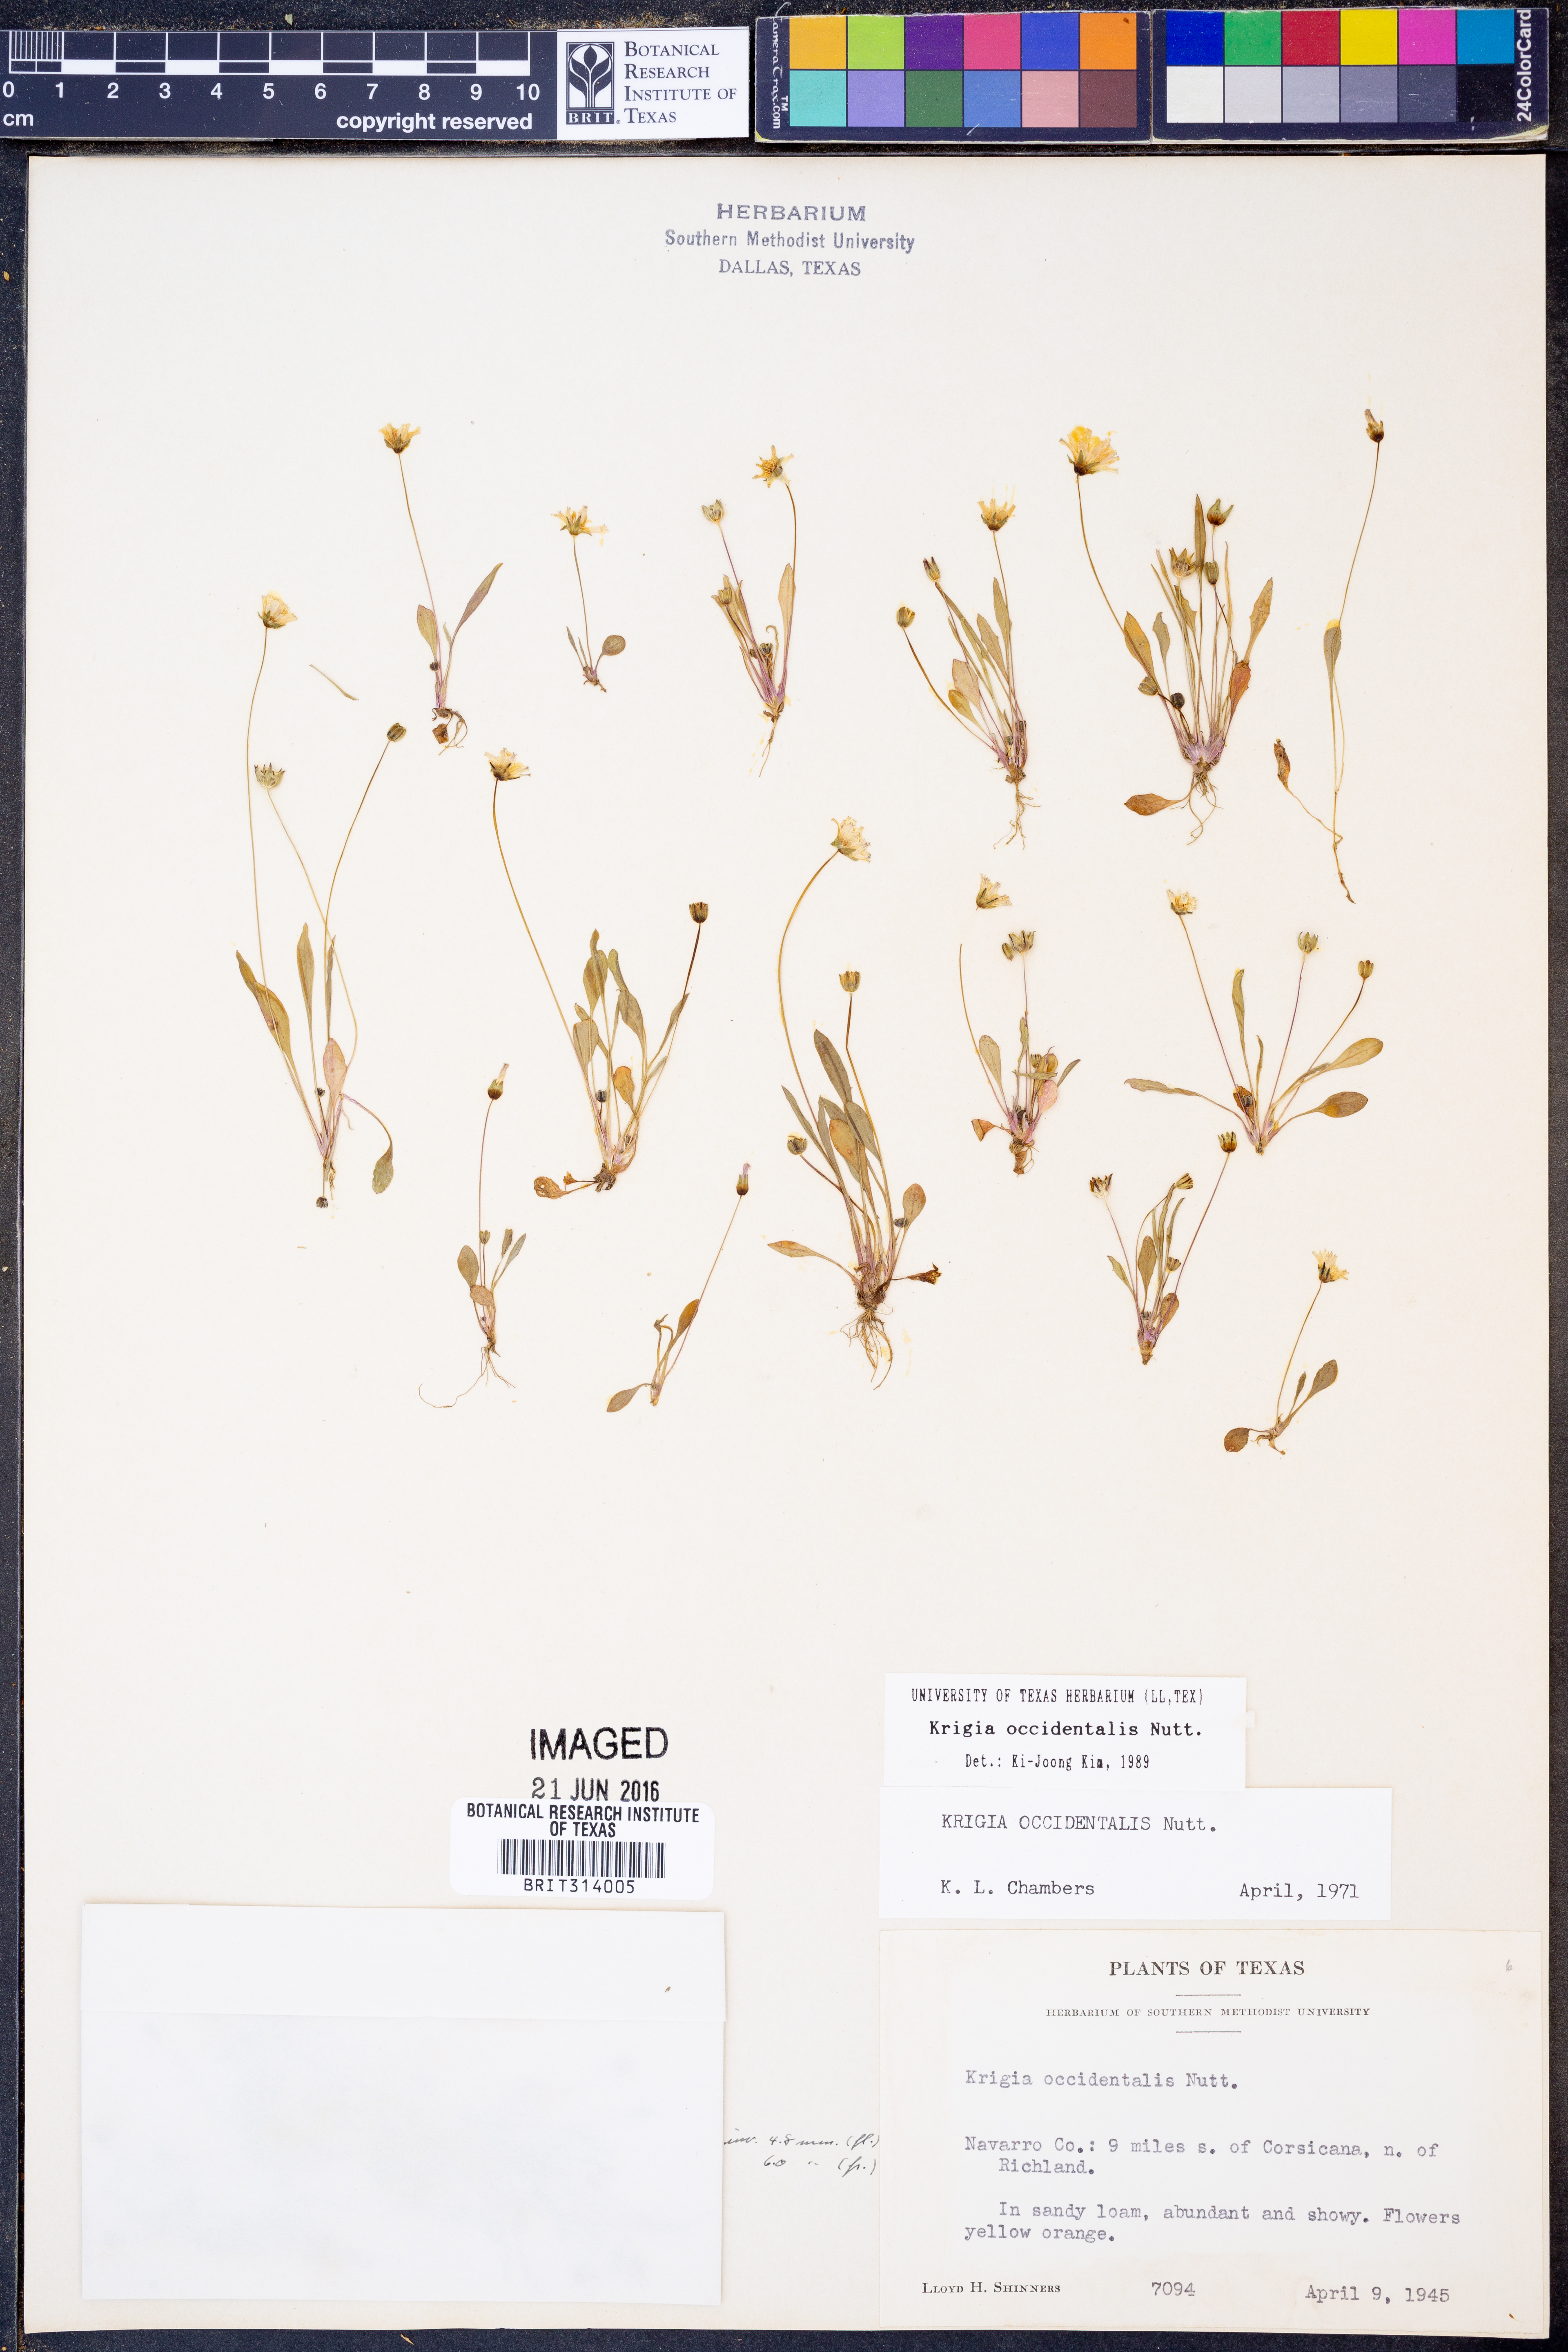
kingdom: Plantae
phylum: Tracheophyta
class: Magnoliopsida
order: Asterales
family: Asteraceae
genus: Krigia
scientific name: Krigia occidentalis
